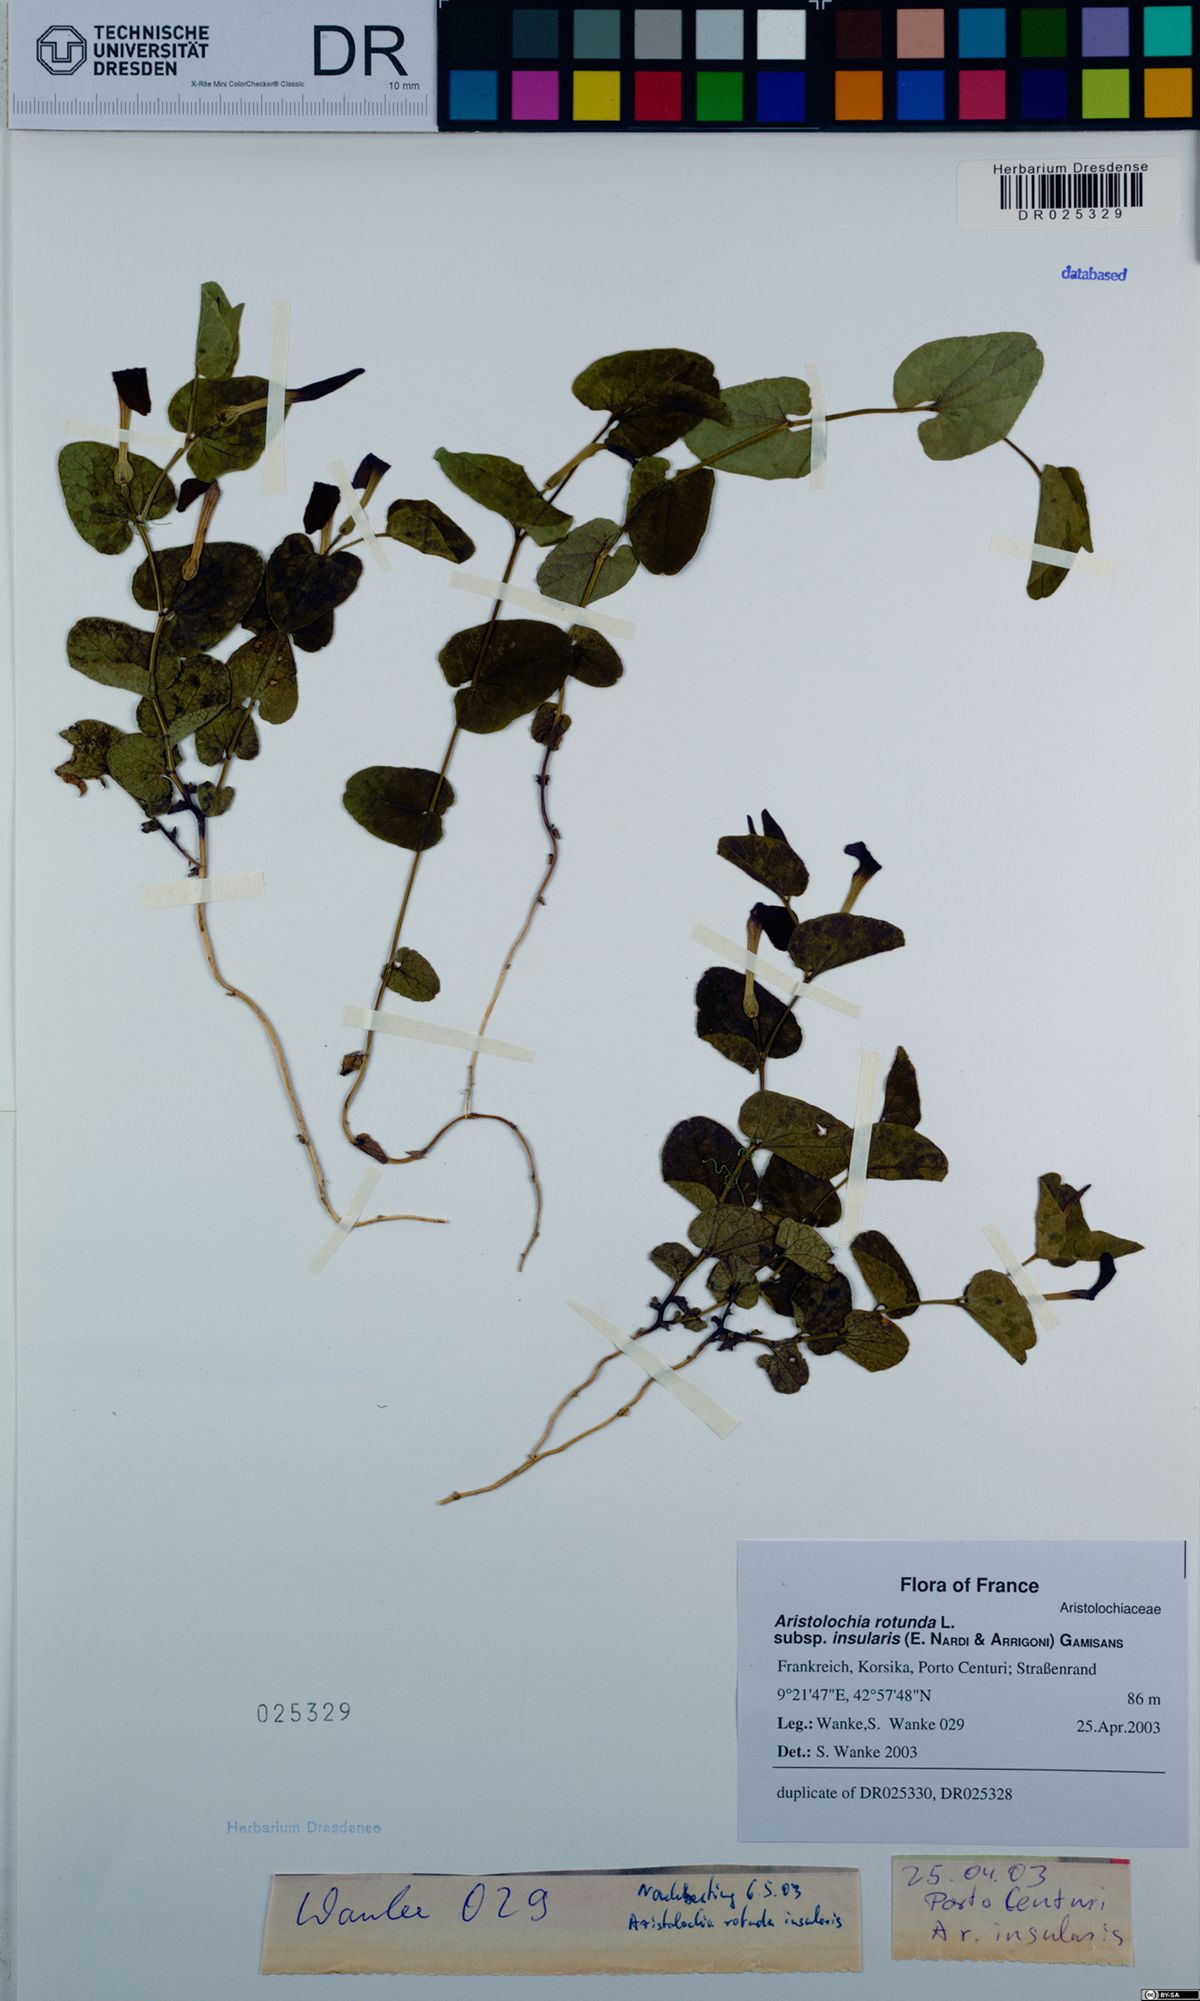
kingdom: Plantae
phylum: Tracheophyta
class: Magnoliopsida
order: Piperales
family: Aristolochiaceae
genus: Aristolochia
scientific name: Aristolochia rotunda
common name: Smearwort
